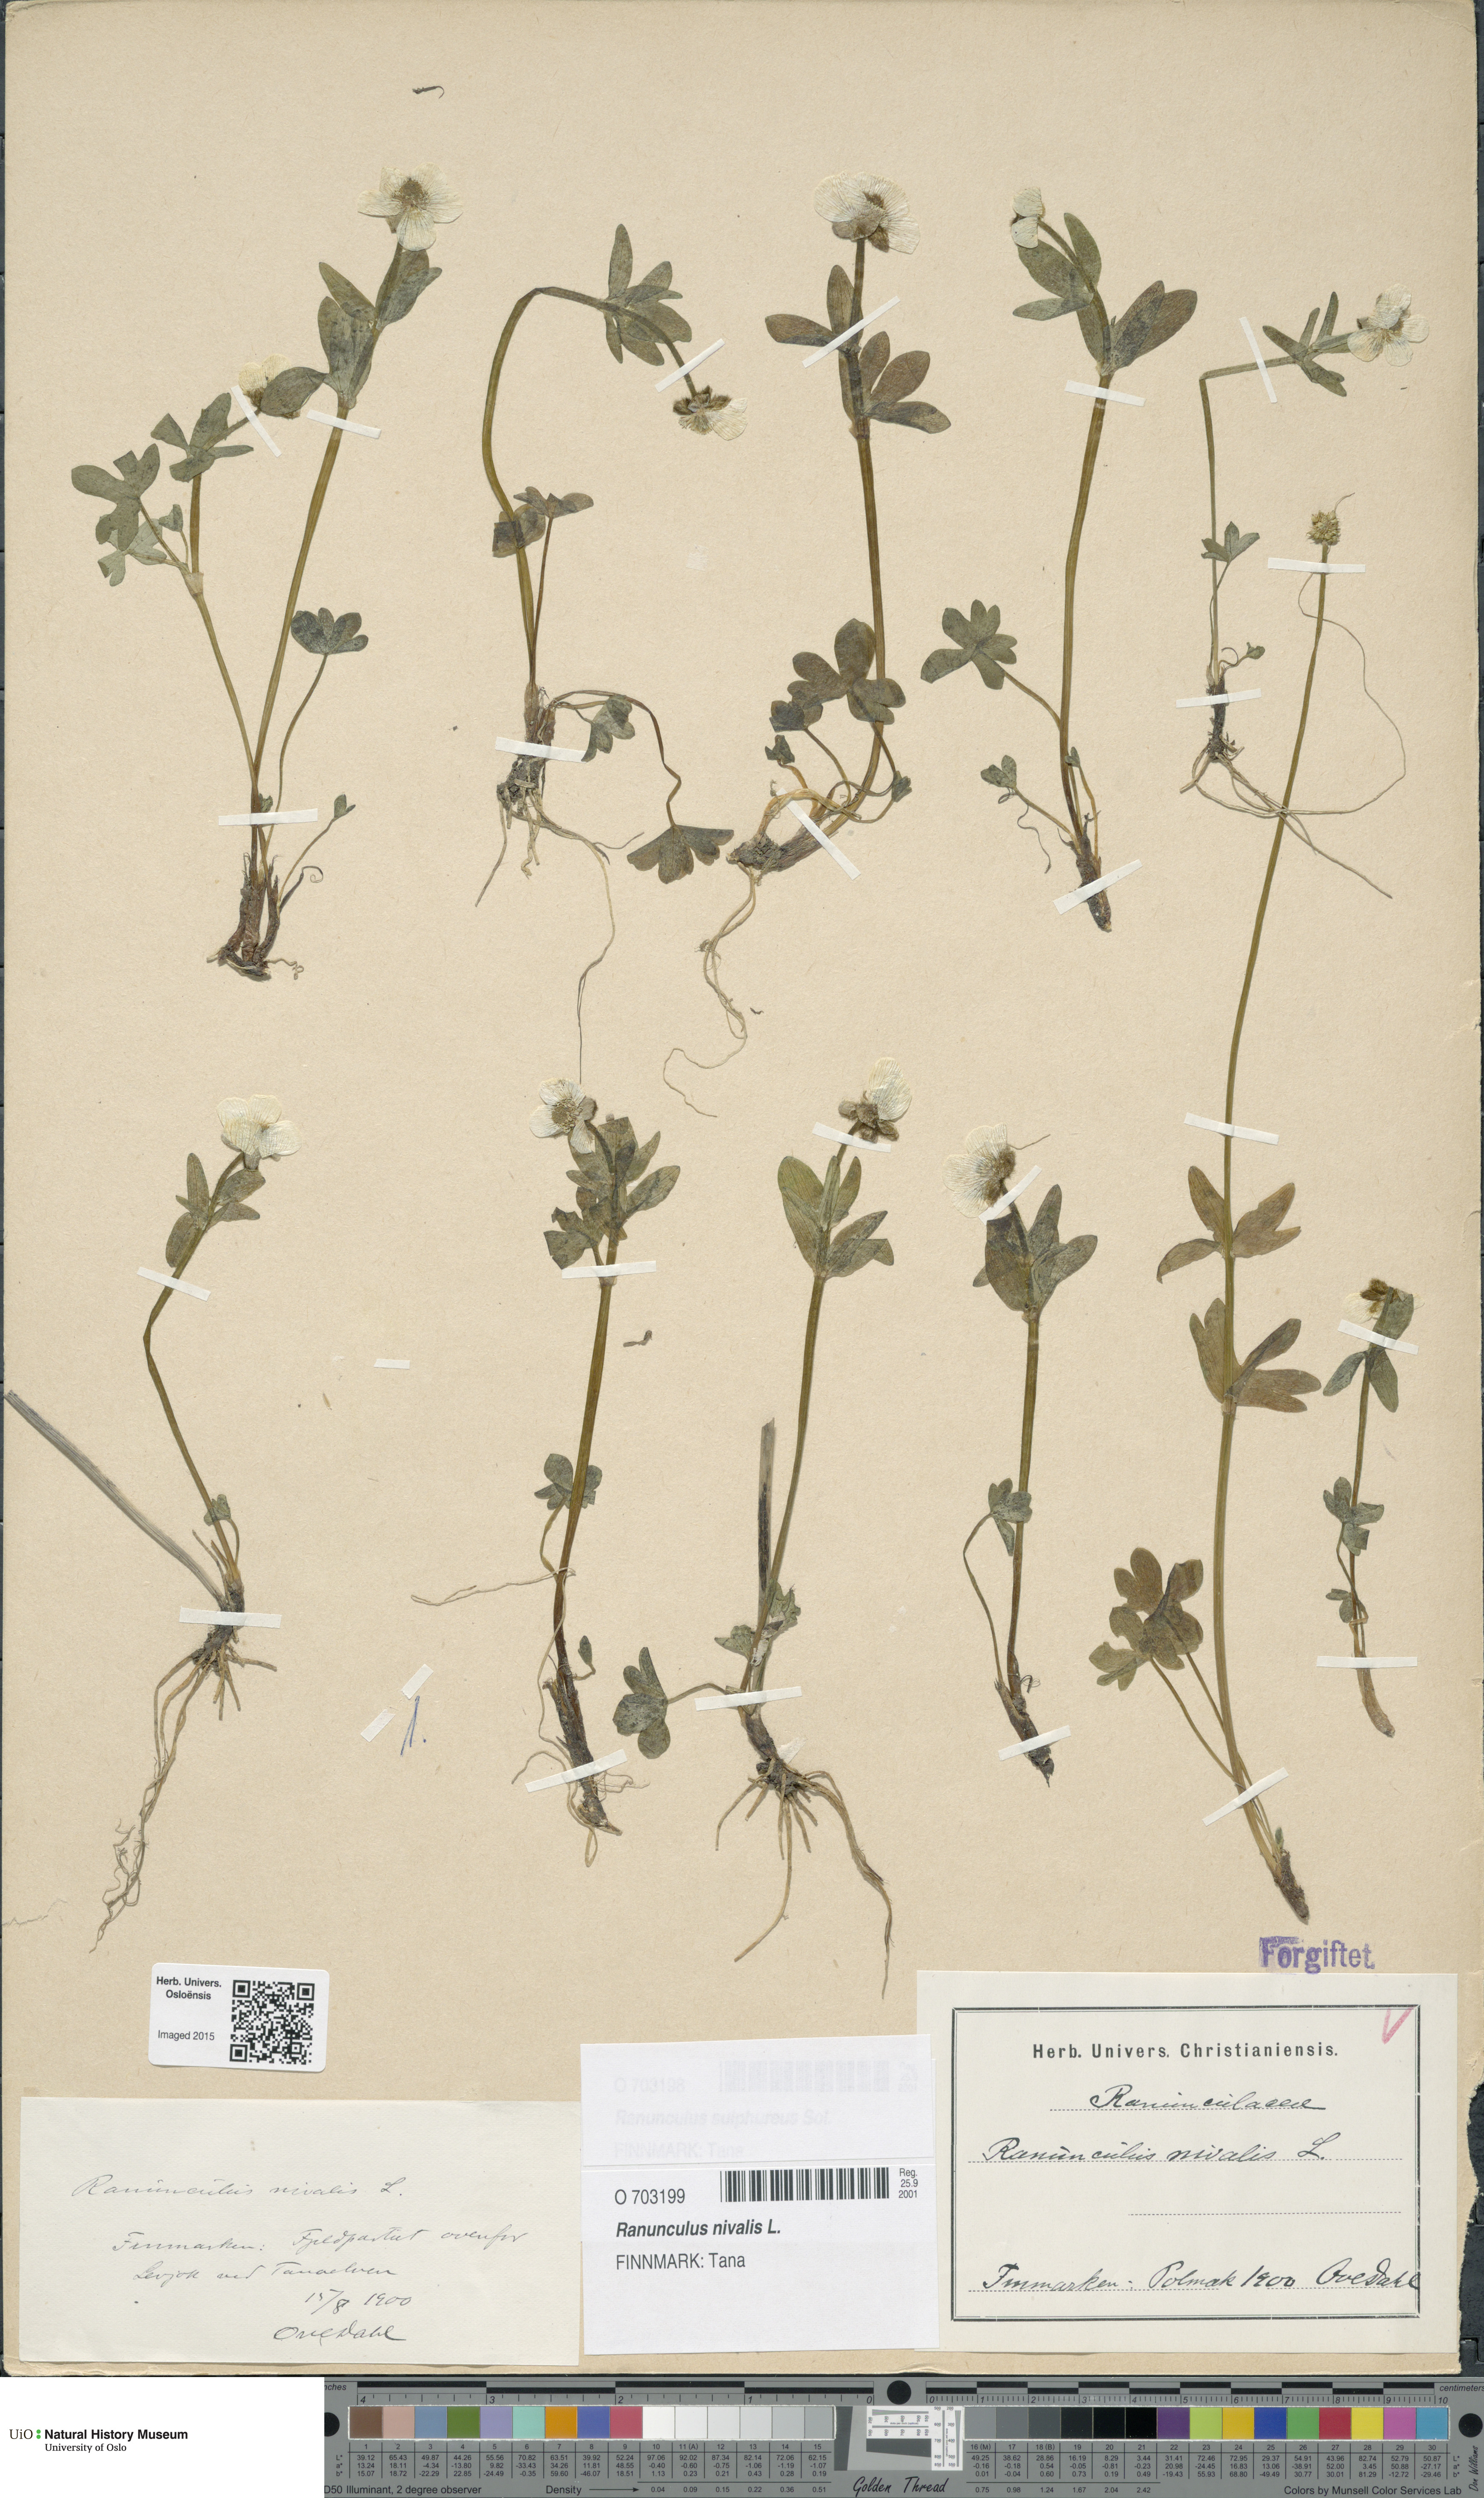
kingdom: Plantae
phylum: Tracheophyta
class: Magnoliopsida
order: Ranunculales
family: Ranunculaceae
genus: Ranunculus
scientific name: Ranunculus nivalis
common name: Snow buttercup
